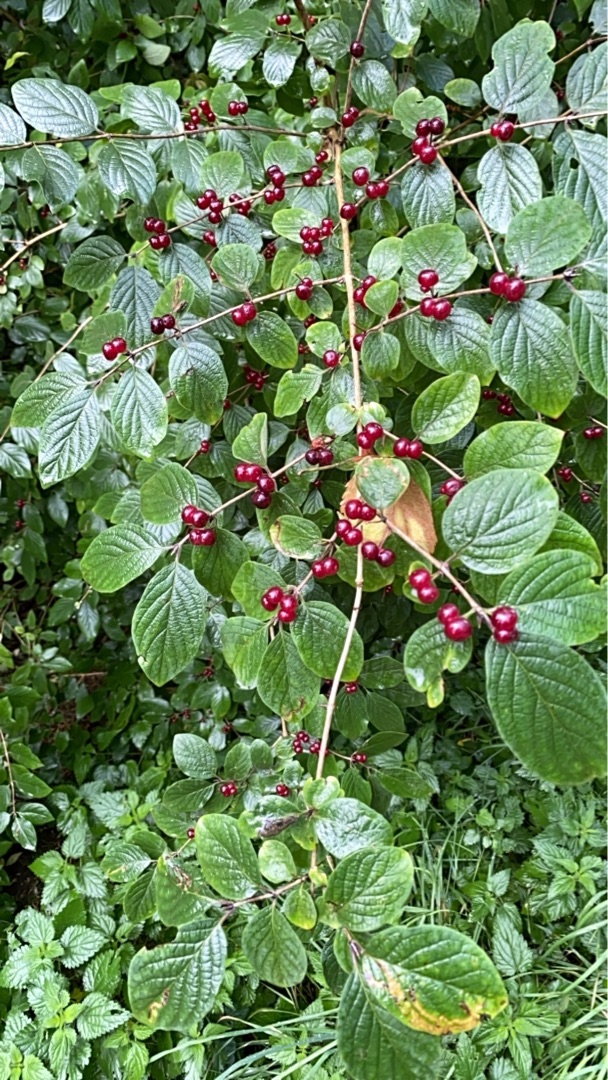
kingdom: Plantae
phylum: Tracheophyta
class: Magnoliopsida
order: Dipsacales
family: Caprifoliaceae
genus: Lonicera
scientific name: Lonicera xylosteum
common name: Dunet gedeblad
